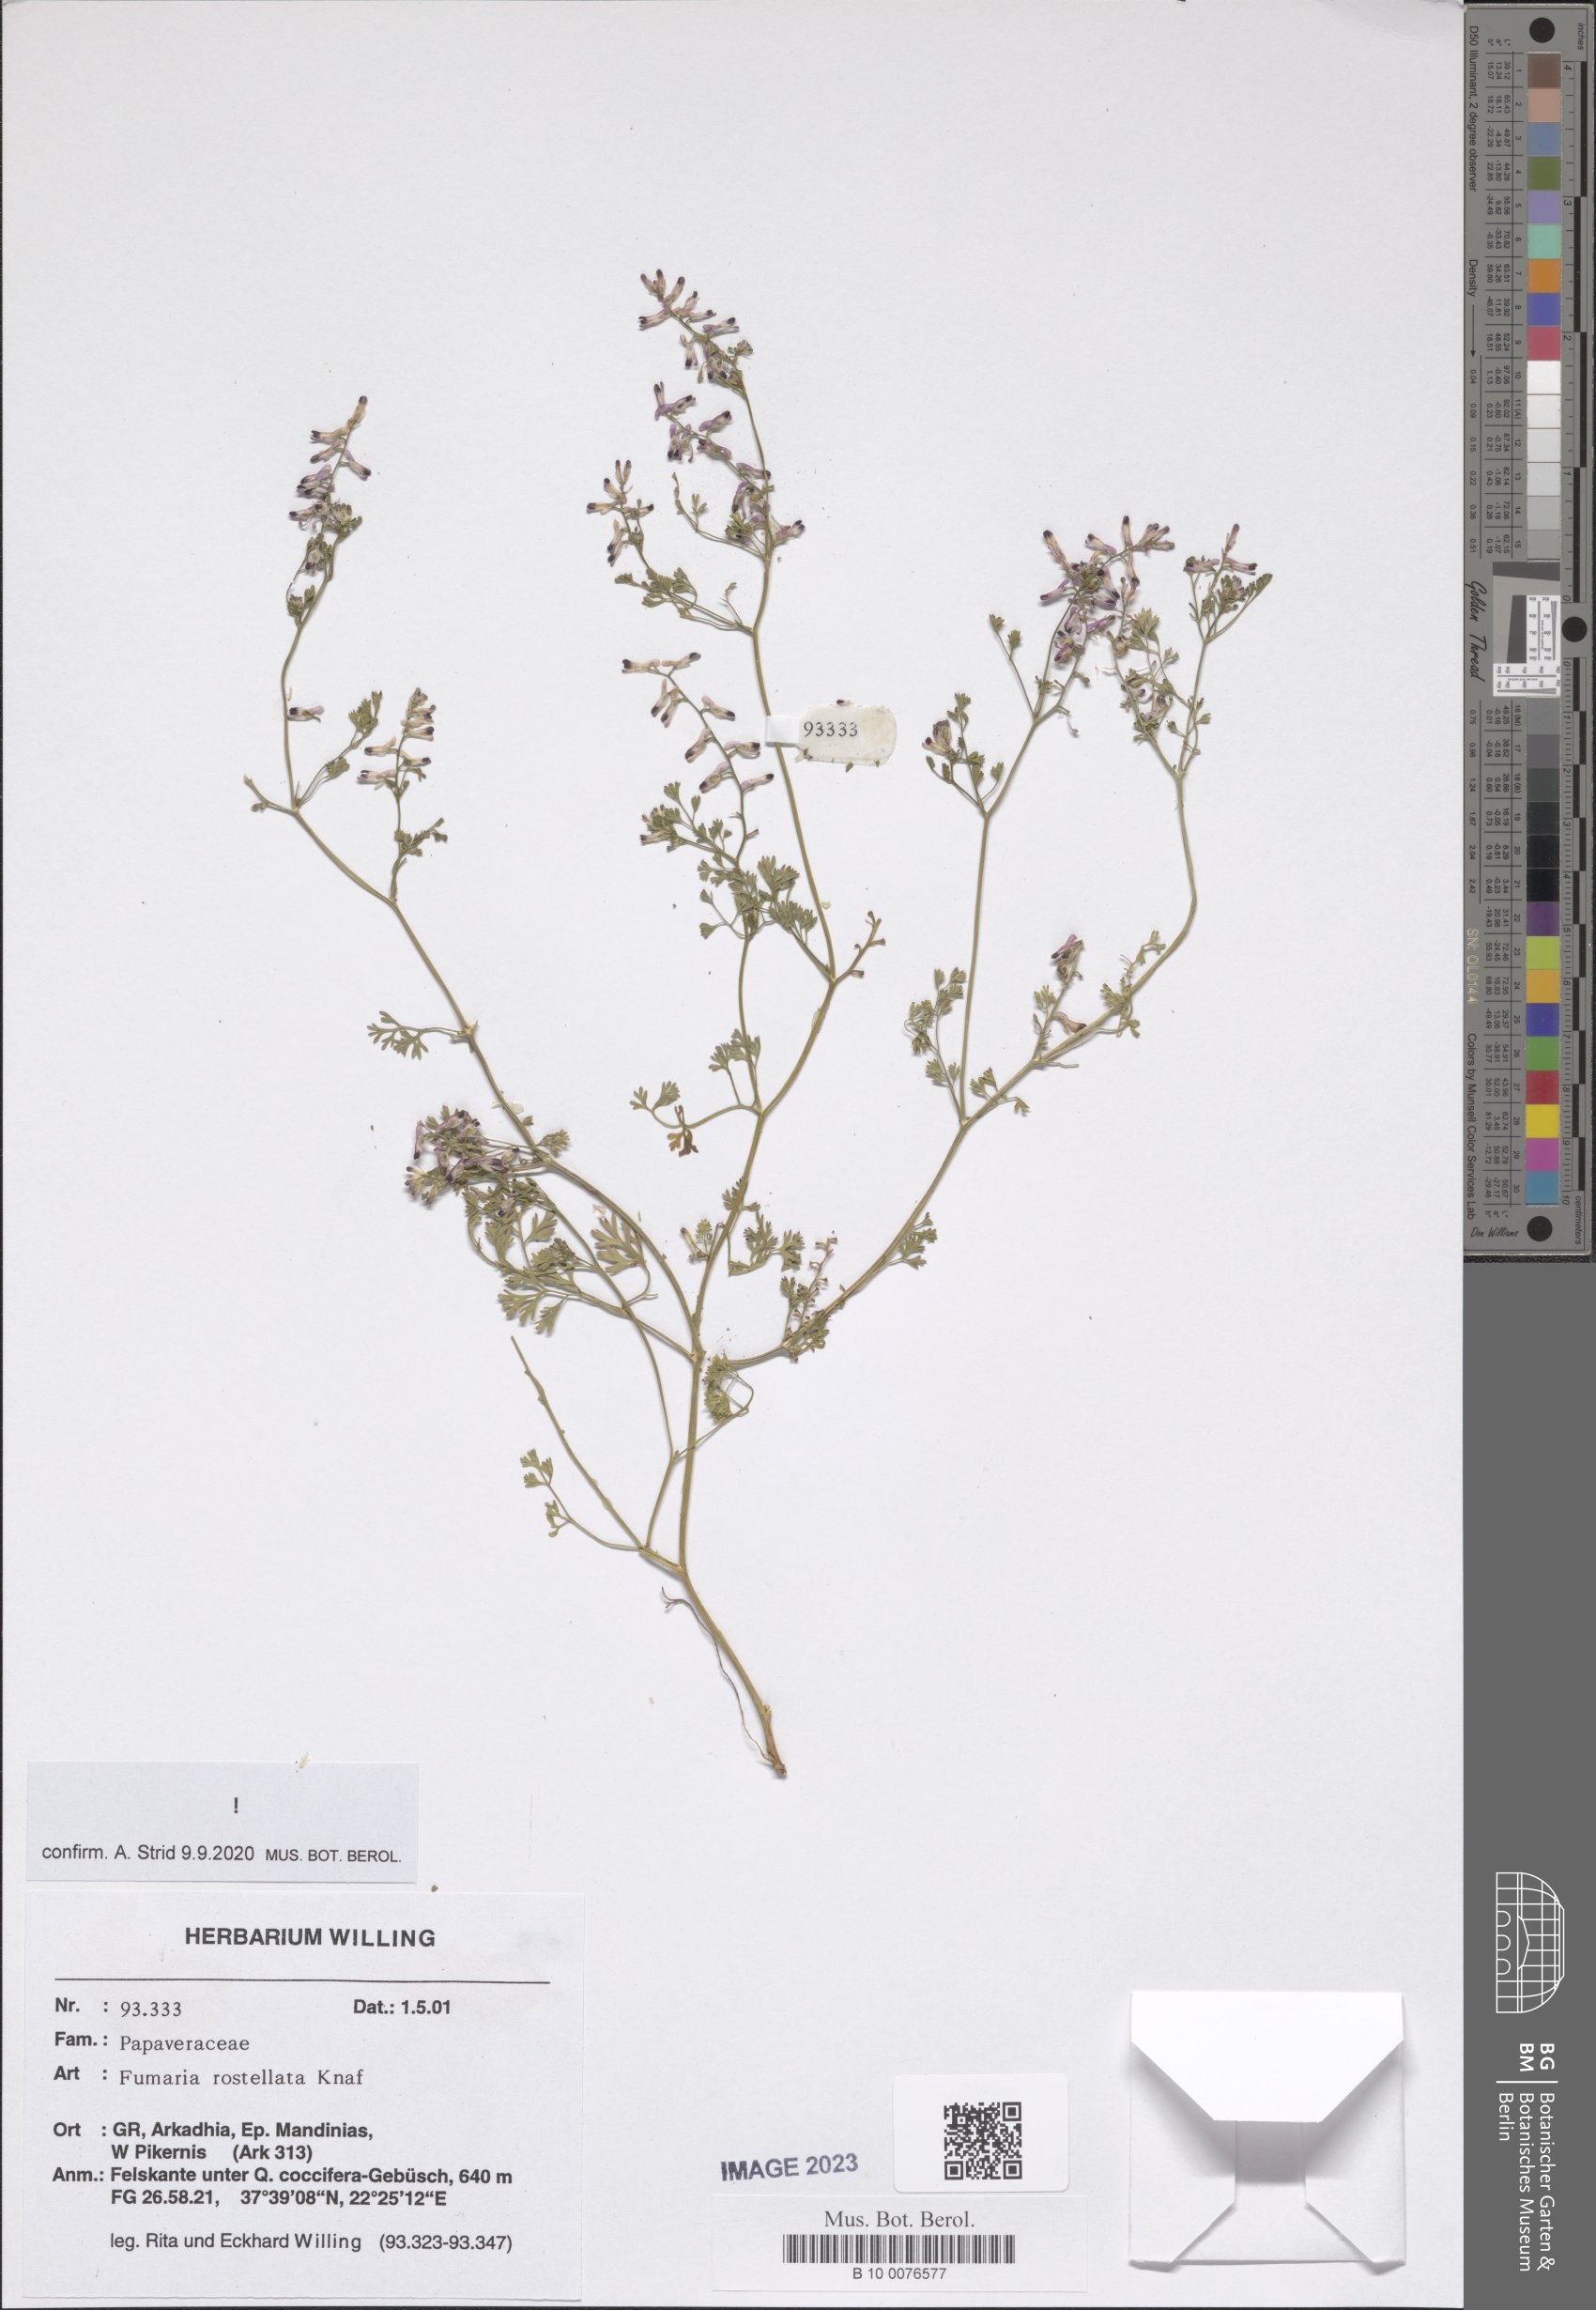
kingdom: Plantae
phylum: Tracheophyta
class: Magnoliopsida
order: Ranunculales
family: Papaveraceae
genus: Fumaria
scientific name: Fumaria rostellata
